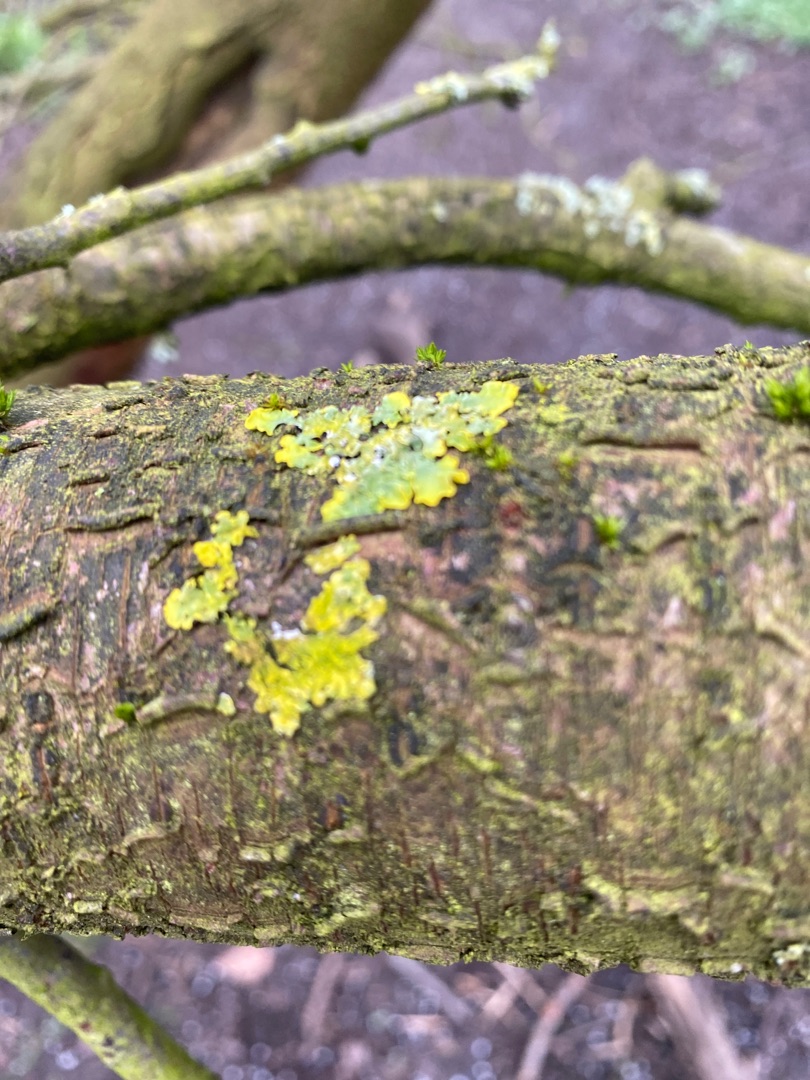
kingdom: Fungi
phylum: Ascomycota
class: Lecanoromycetes
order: Teloschistales
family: Teloschistaceae
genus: Xanthoria
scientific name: Xanthoria parietina
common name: Almindelig væggelav
